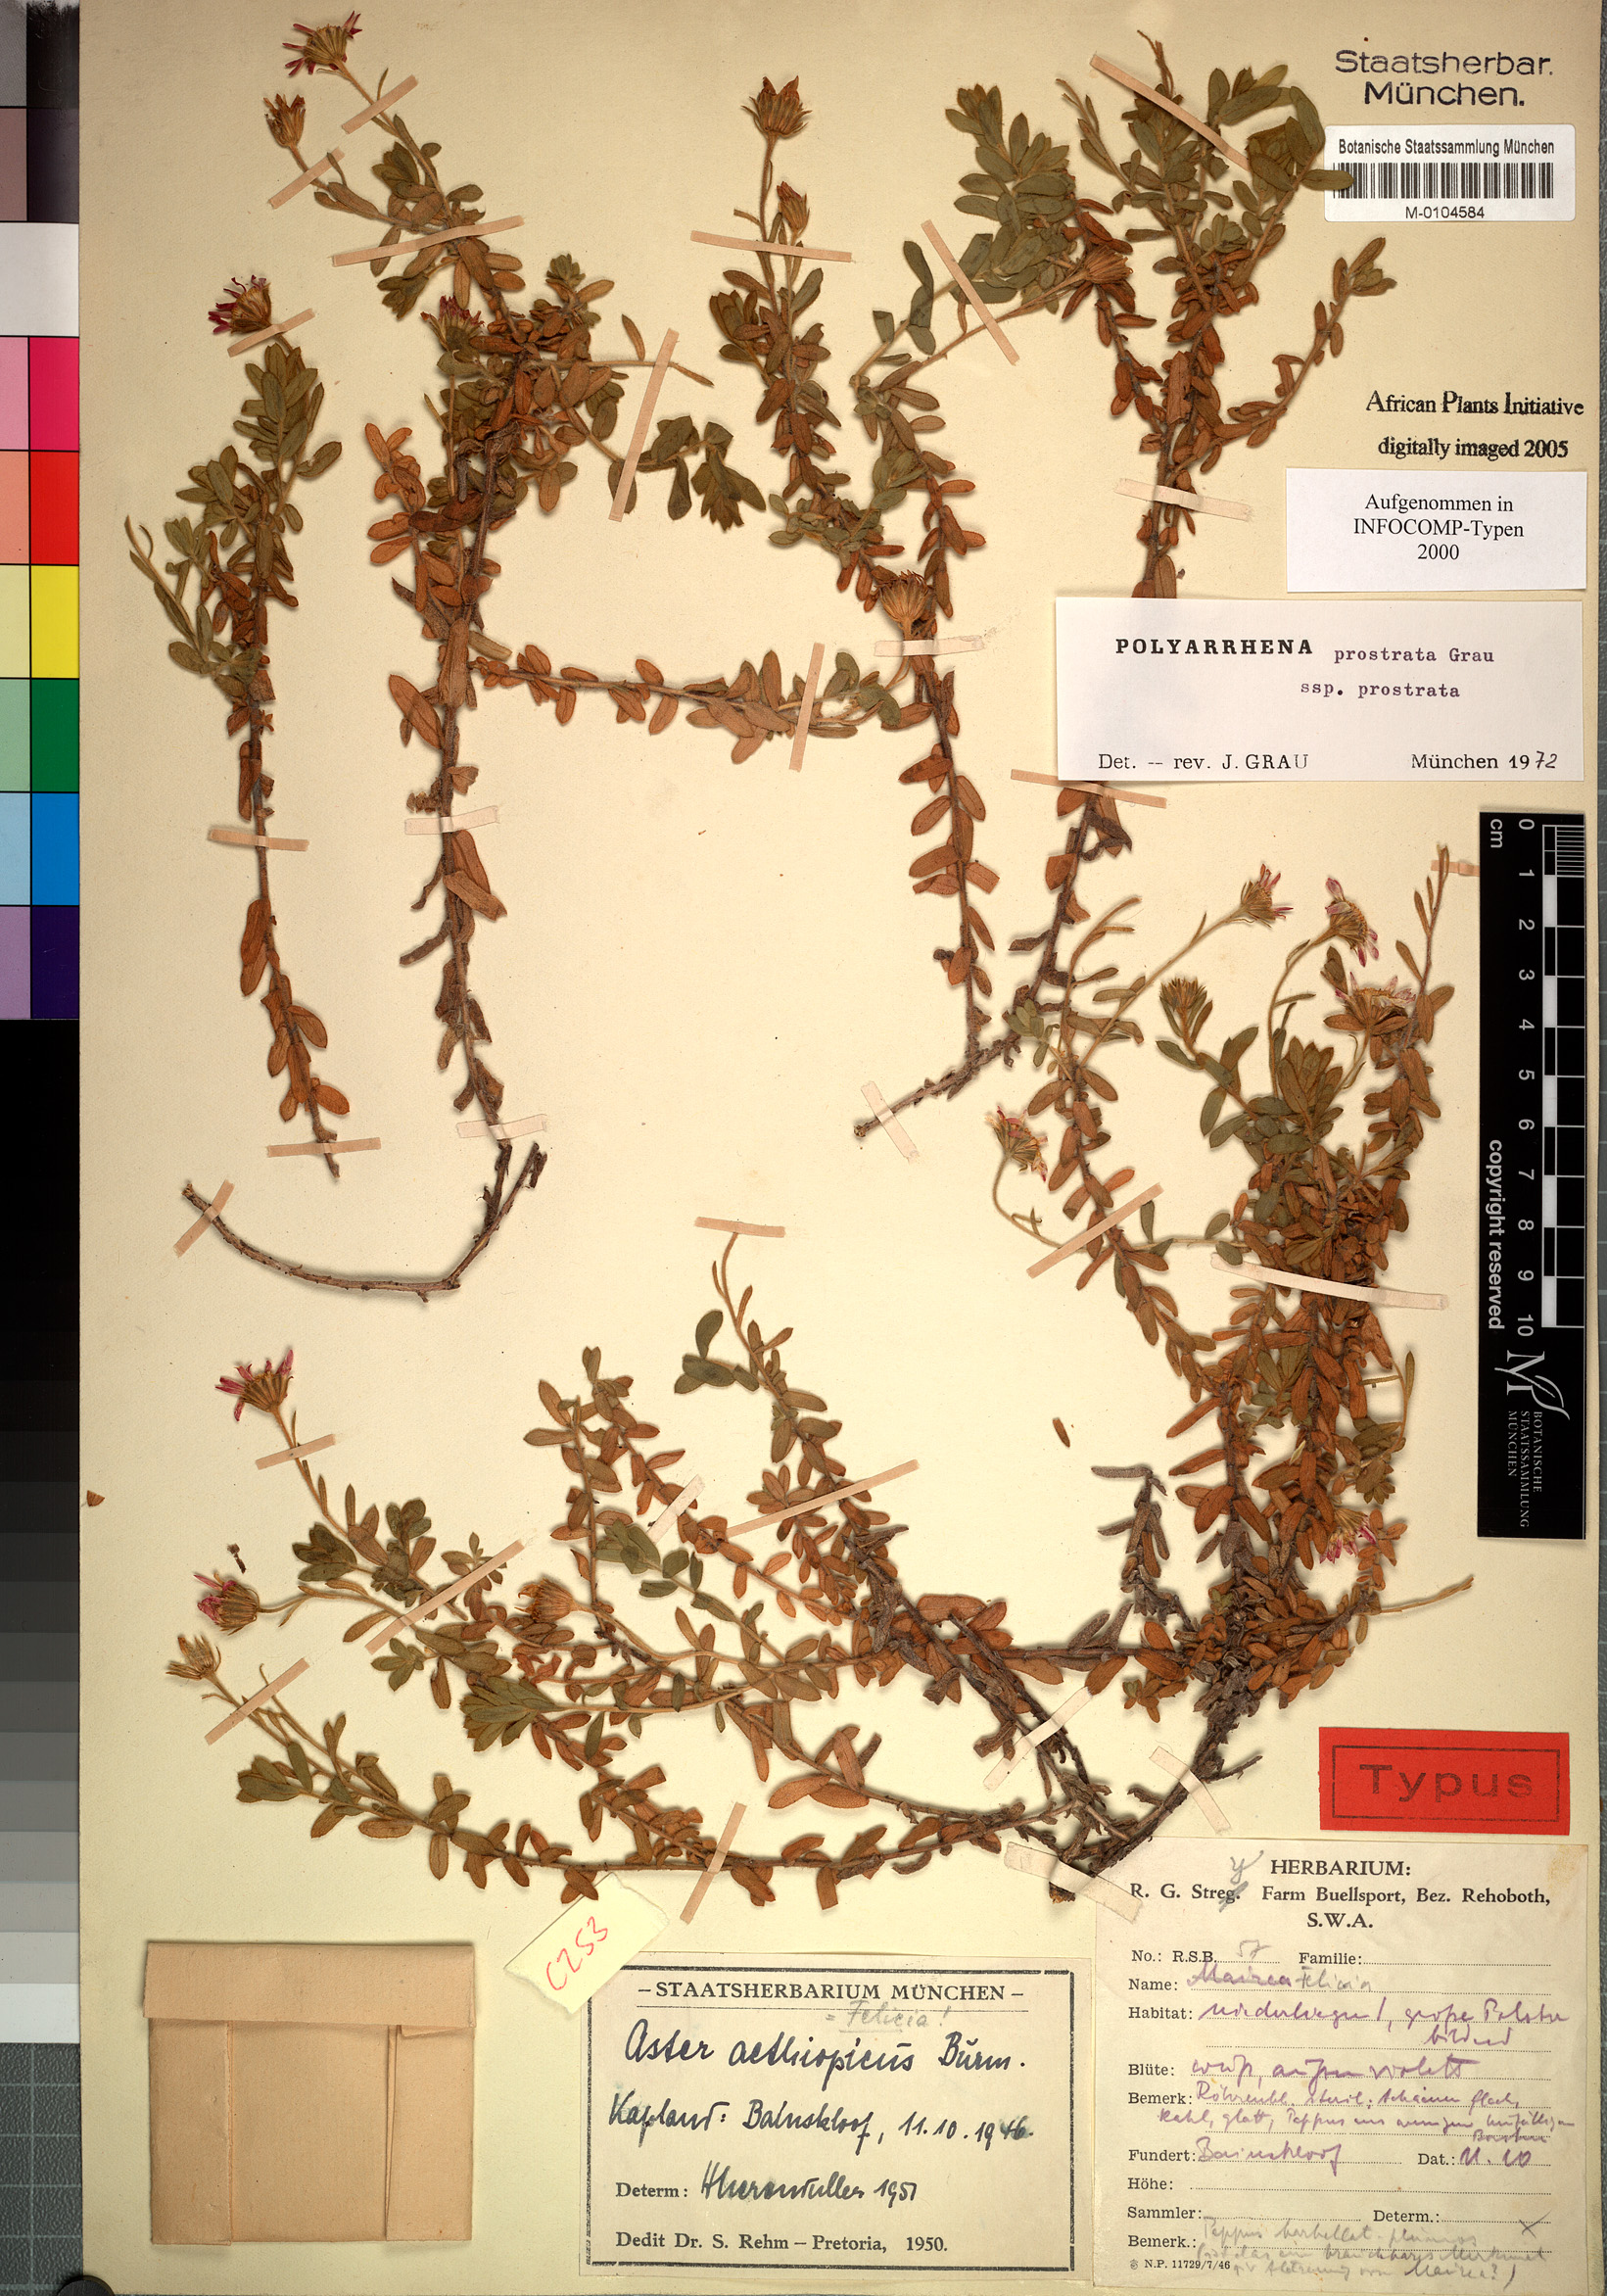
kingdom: Plantae
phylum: Tracheophyta
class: Magnoliopsida
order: Asterales
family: Asteraceae
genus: Polyarrhena
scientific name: Polyarrhena prostrata
